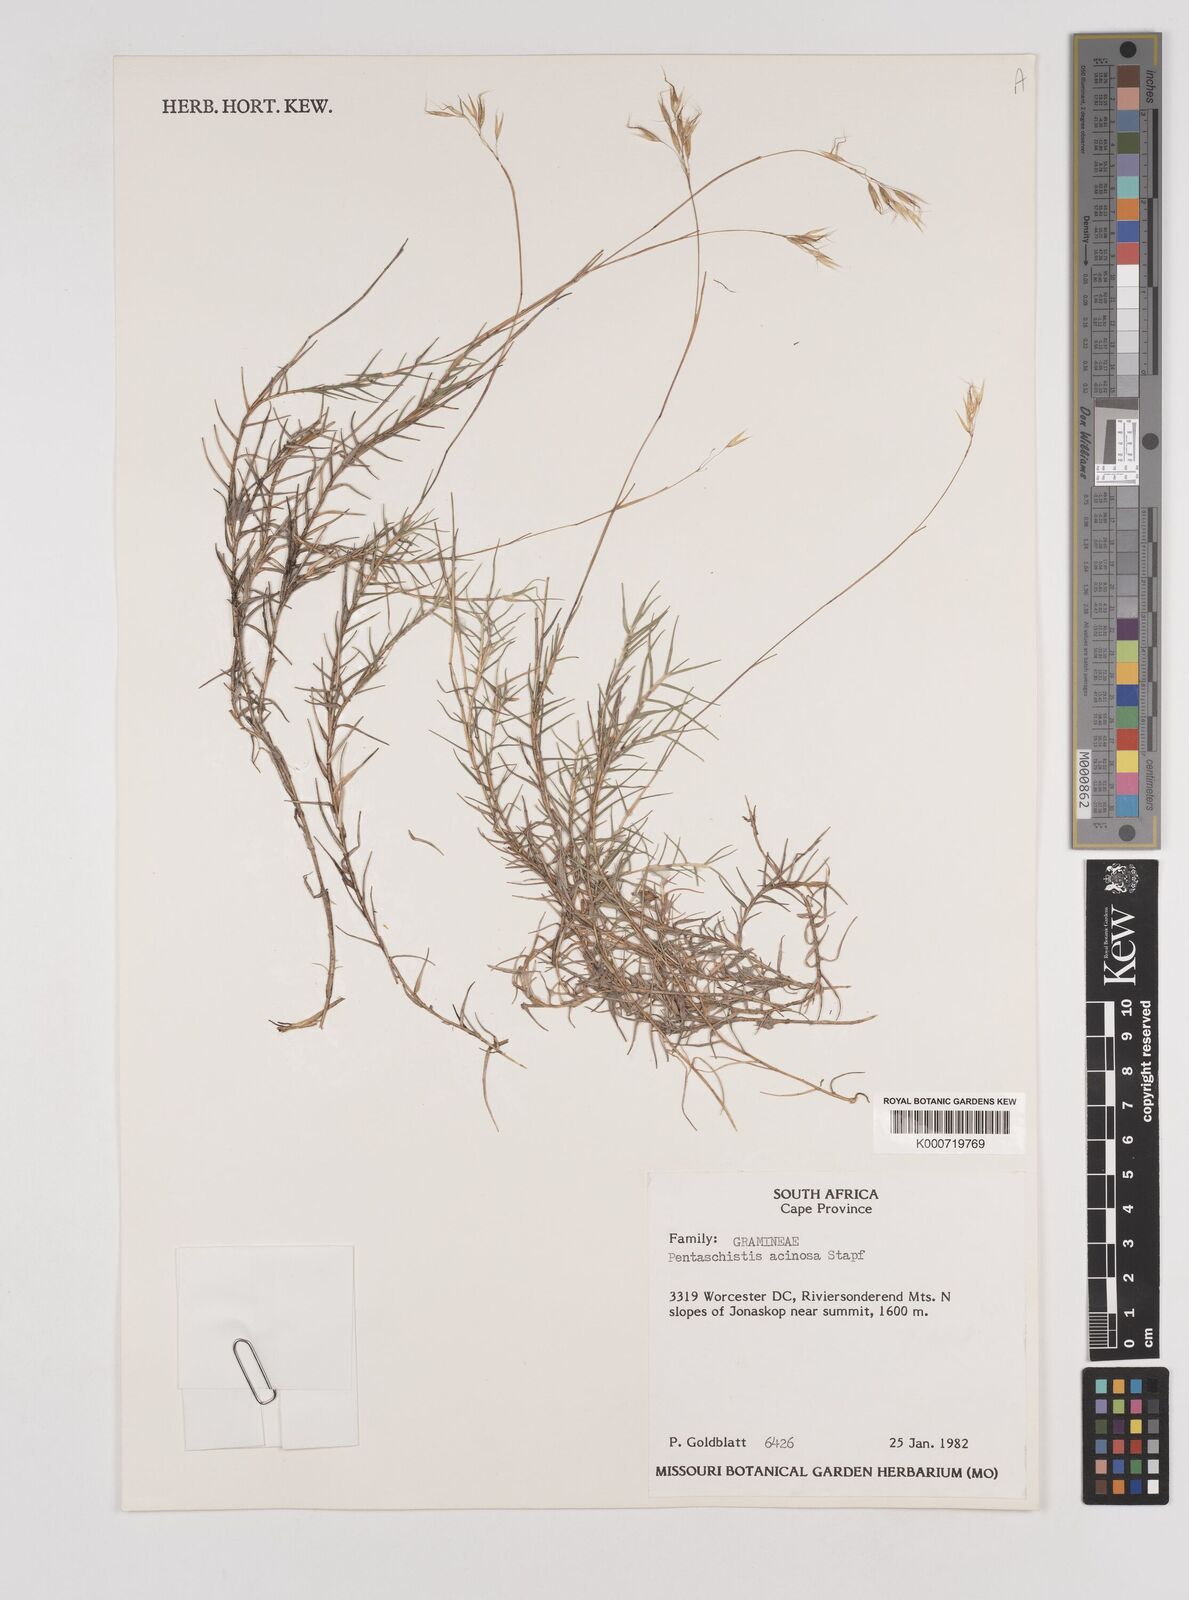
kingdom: Plantae
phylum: Tracheophyta
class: Liliopsida
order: Poales
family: Poaceae
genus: Pentameris
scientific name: Pentameris acinosa
